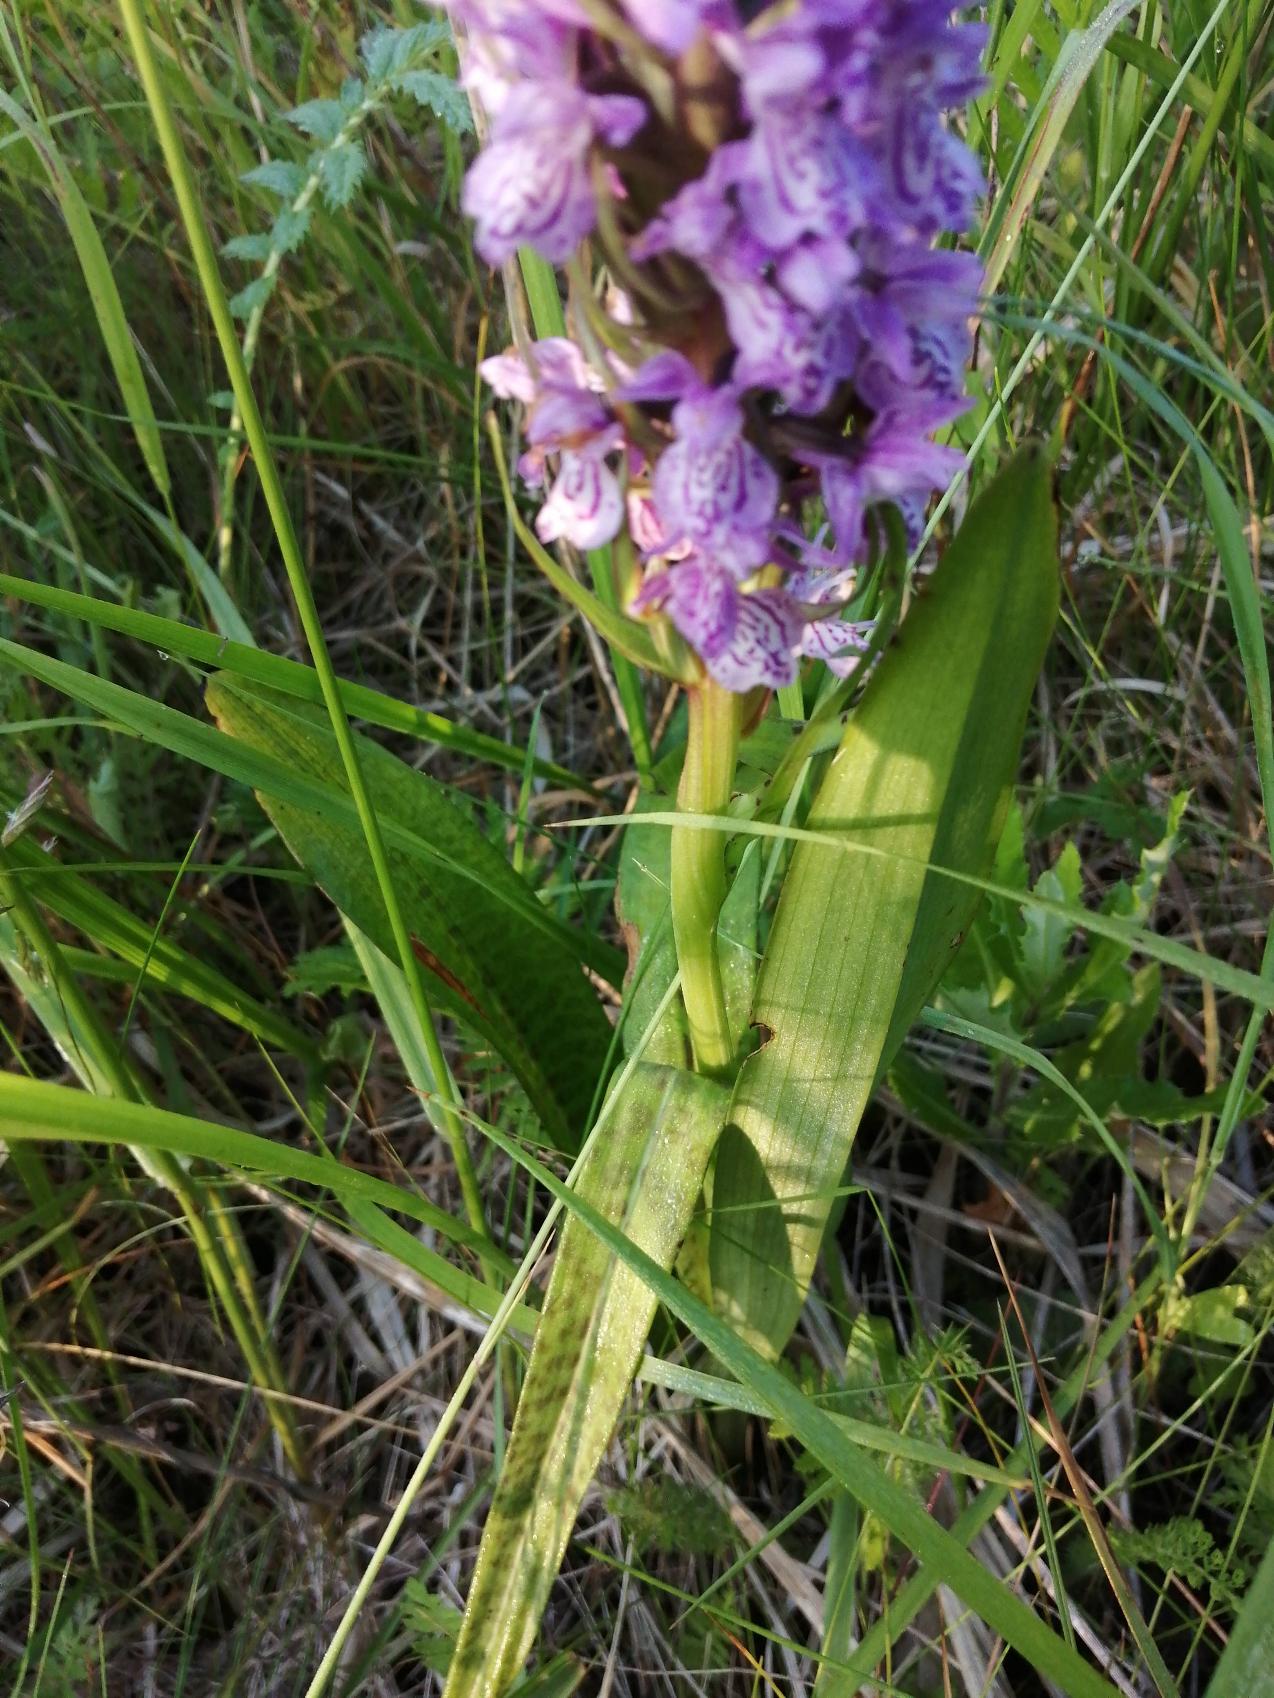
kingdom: Plantae
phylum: Tracheophyta
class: Liliopsida
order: Asparagales
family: Orchidaceae
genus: Dactylorhiza
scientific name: Dactylorhiza majalis
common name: Ringplettet gøgeurt
